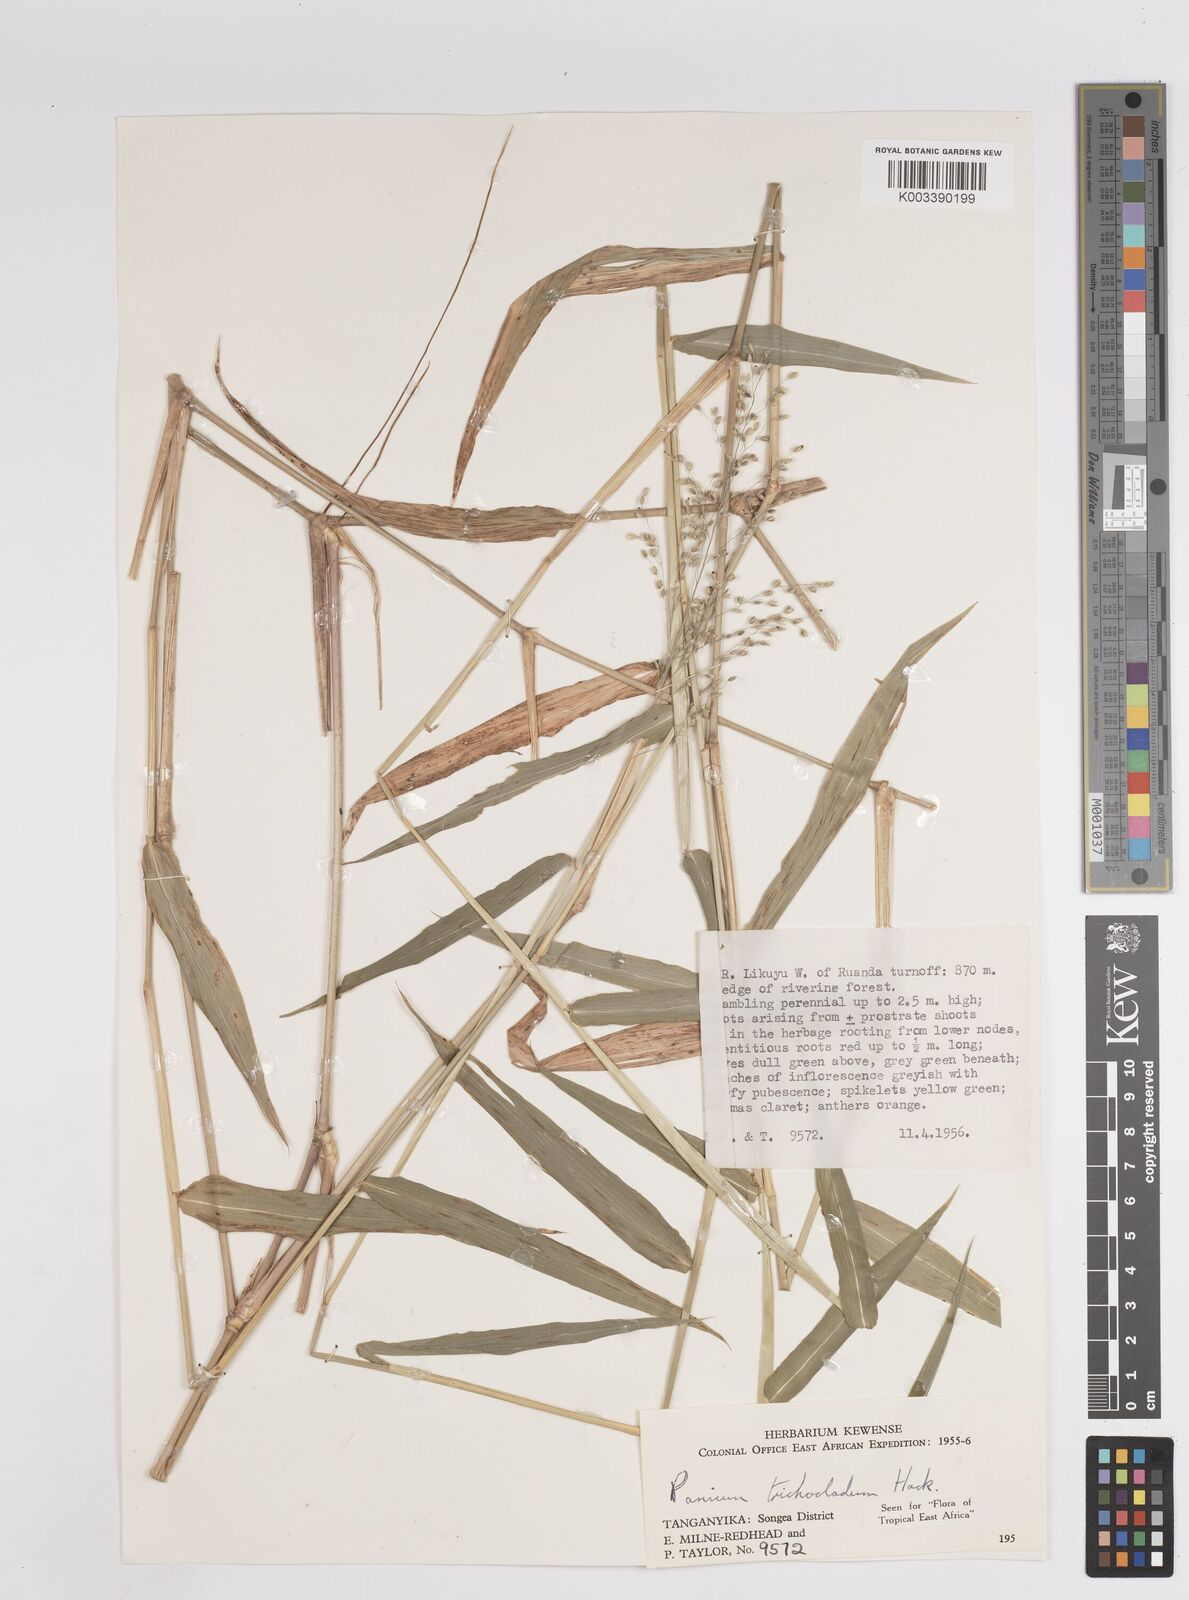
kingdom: Plantae
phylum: Tracheophyta
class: Liliopsida
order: Poales
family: Poaceae
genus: Panicum
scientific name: Panicum trichocladum
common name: Donkey grass
